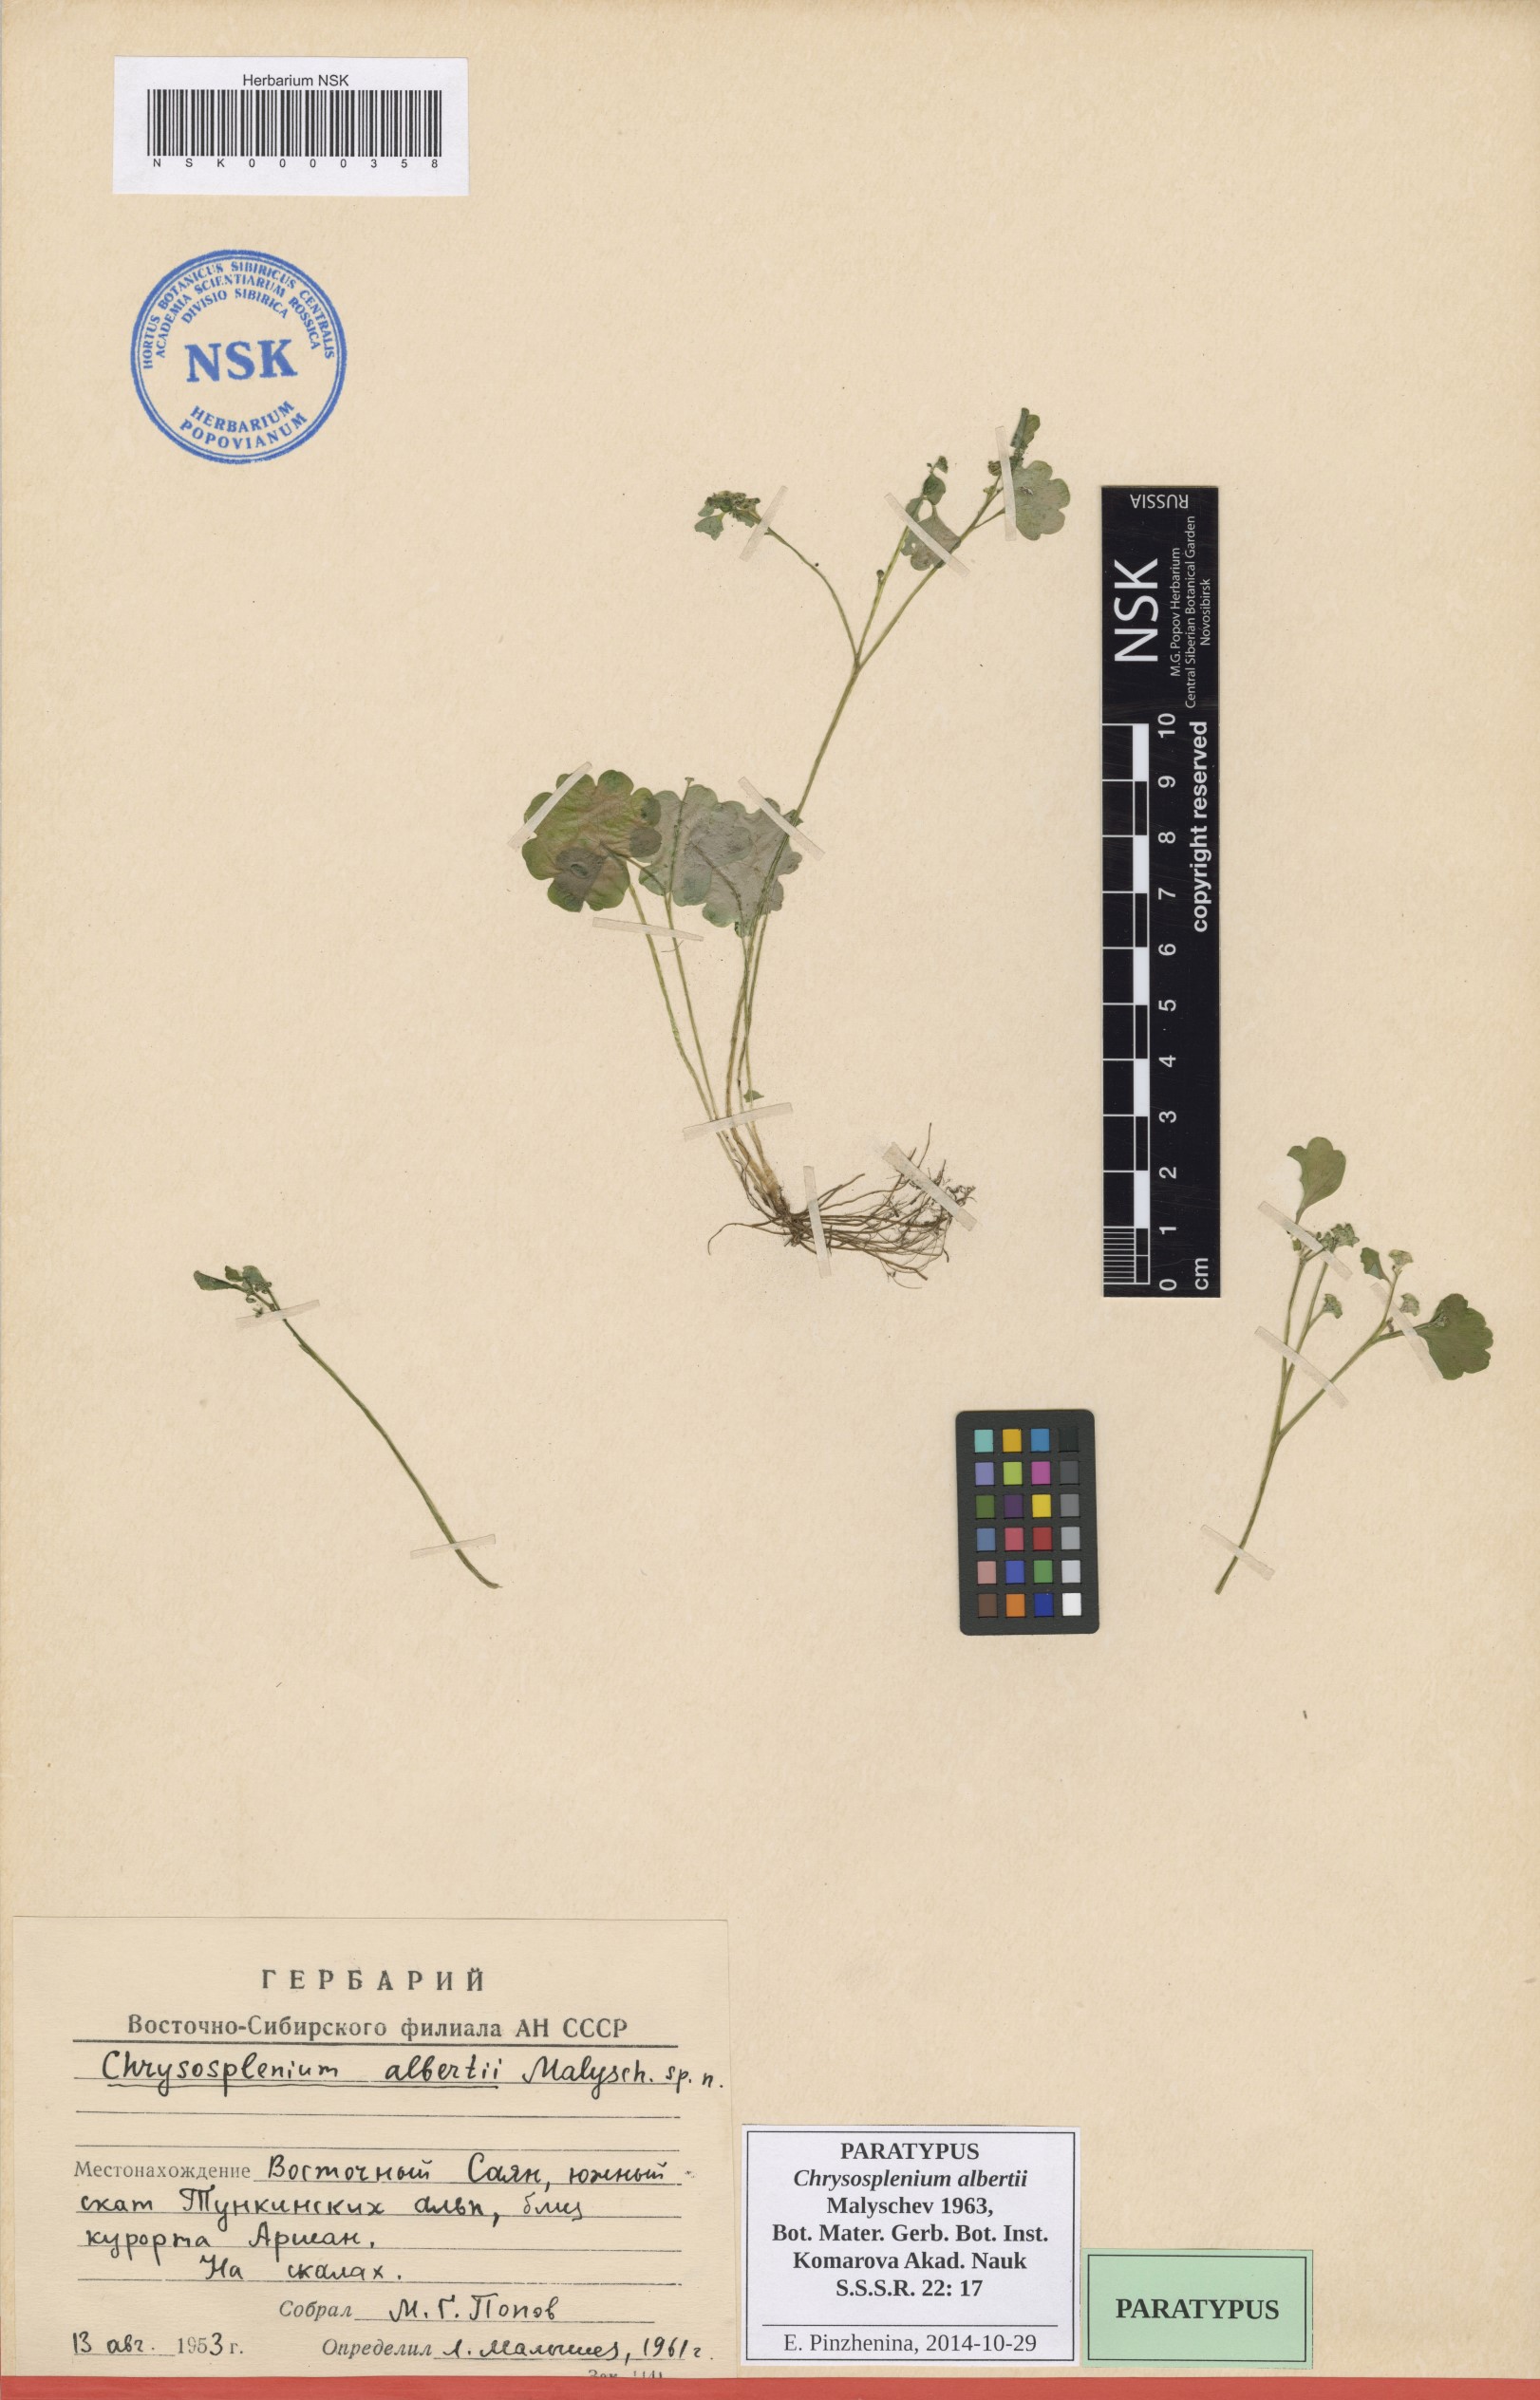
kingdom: Plantae
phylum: Tracheophyta
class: Magnoliopsida
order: Saxifragales
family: Saxifragaceae
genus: Chrysosplenium
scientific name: Chrysosplenium albertii
